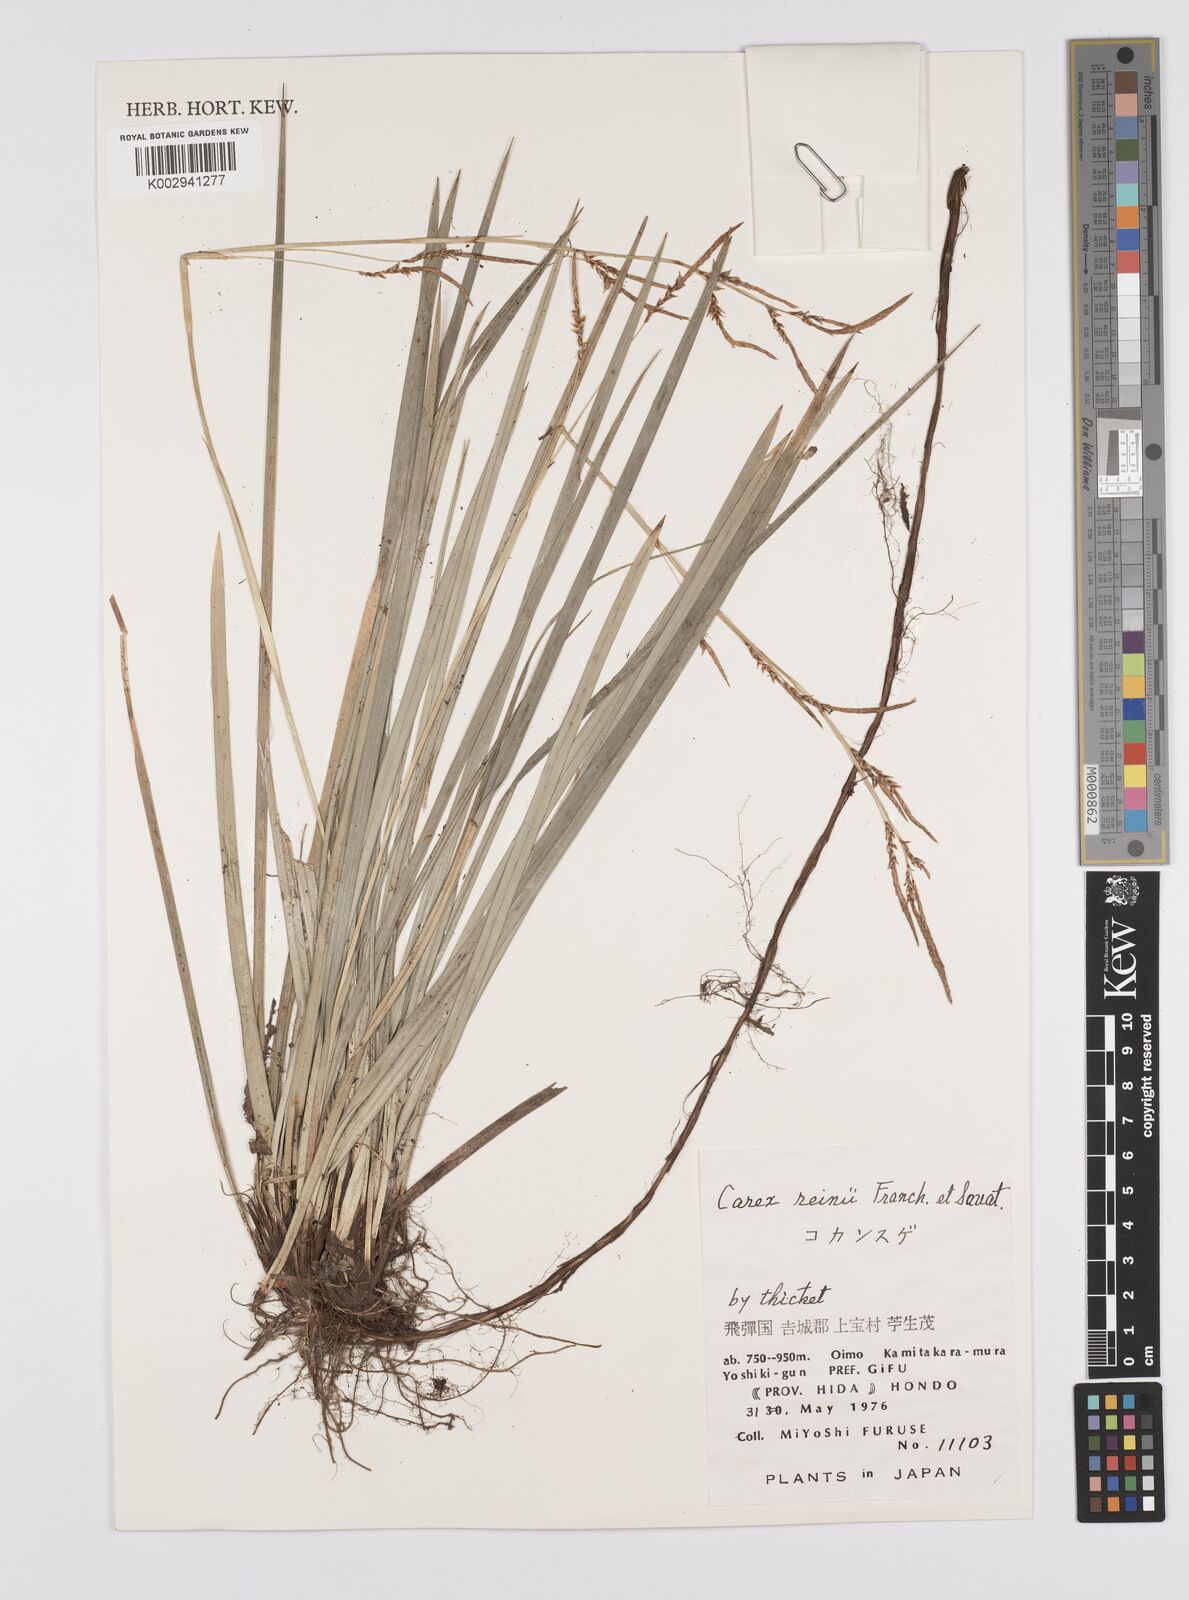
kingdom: Plantae
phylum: Tracheophyta
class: Liliopsida
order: Poales
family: Cyperaceae
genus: Carex
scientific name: Carex reinii
